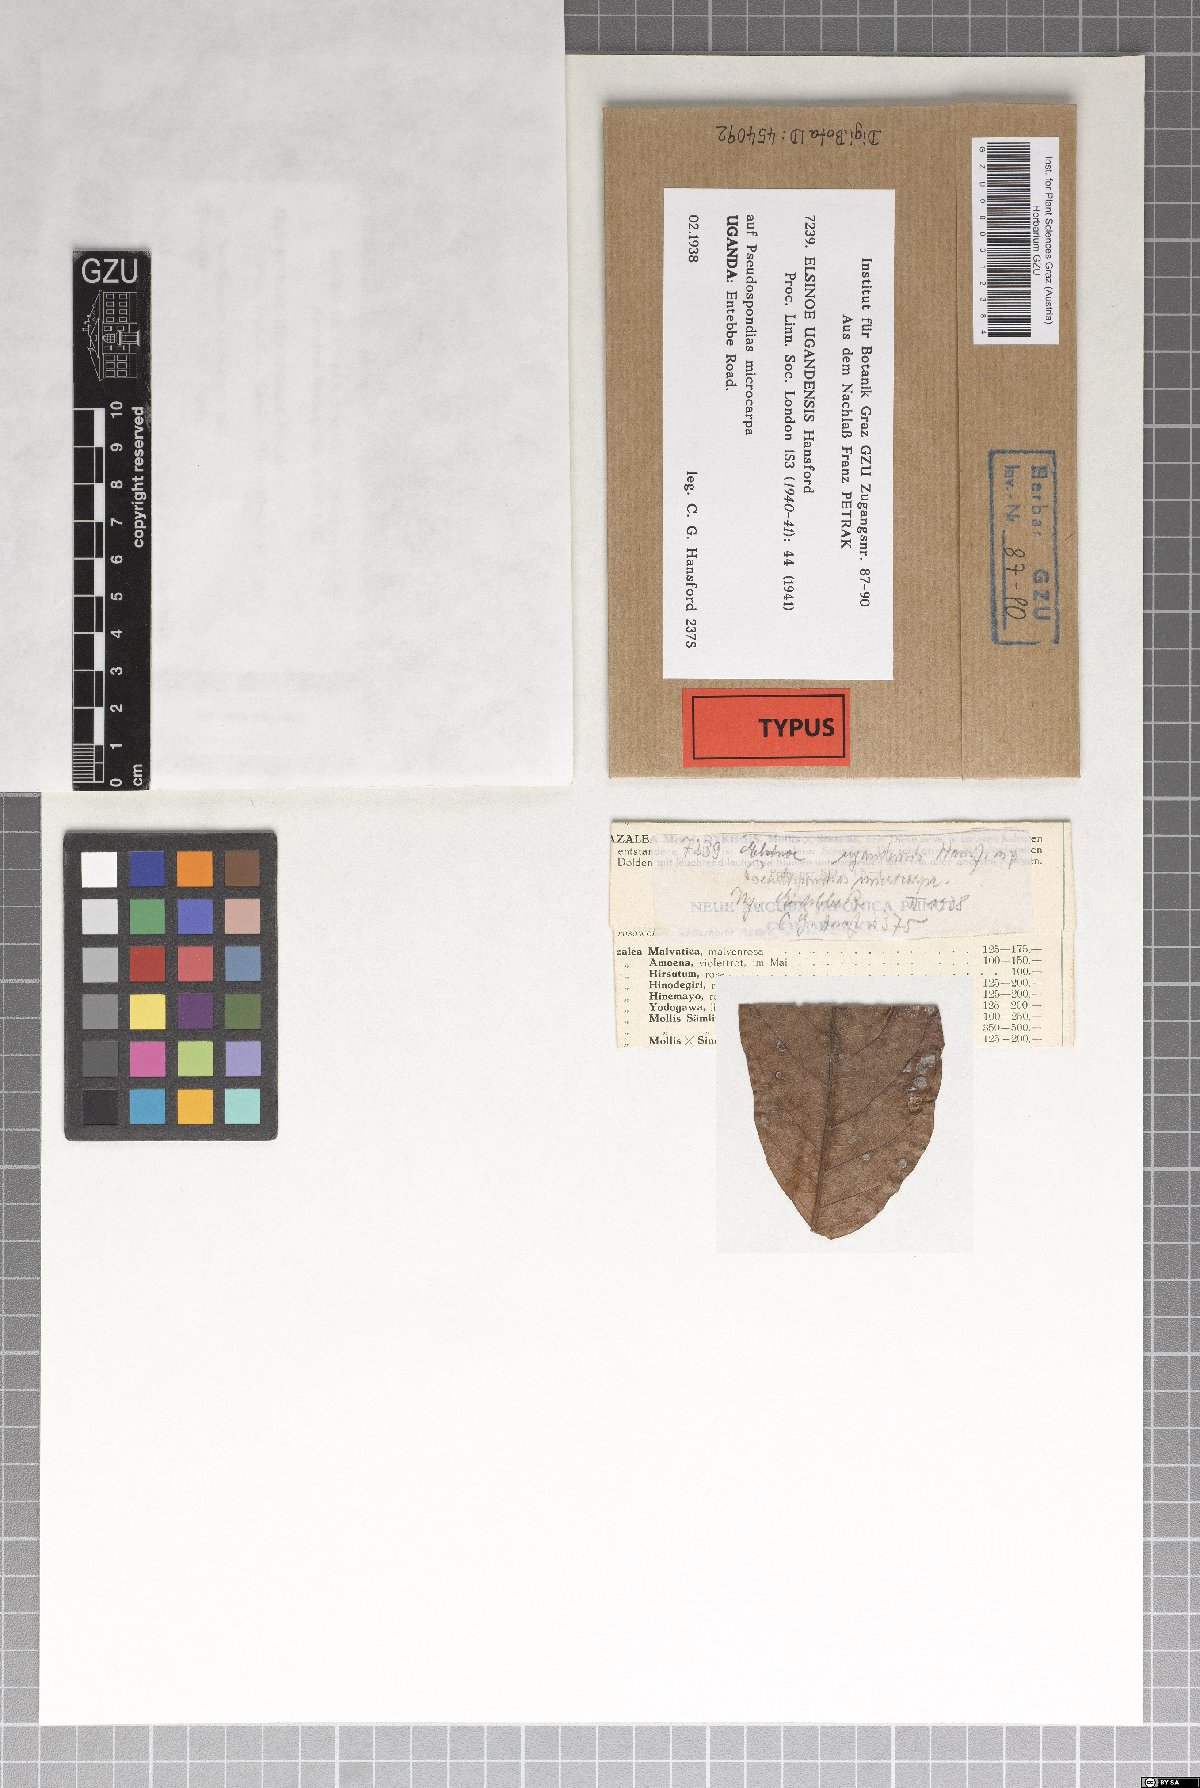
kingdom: Fungi
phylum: Ascomycota
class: Dothideomycetes
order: Myriangiales
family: Elsinoaceae
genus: Elsinoe
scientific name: Elsinoe ugandensis
